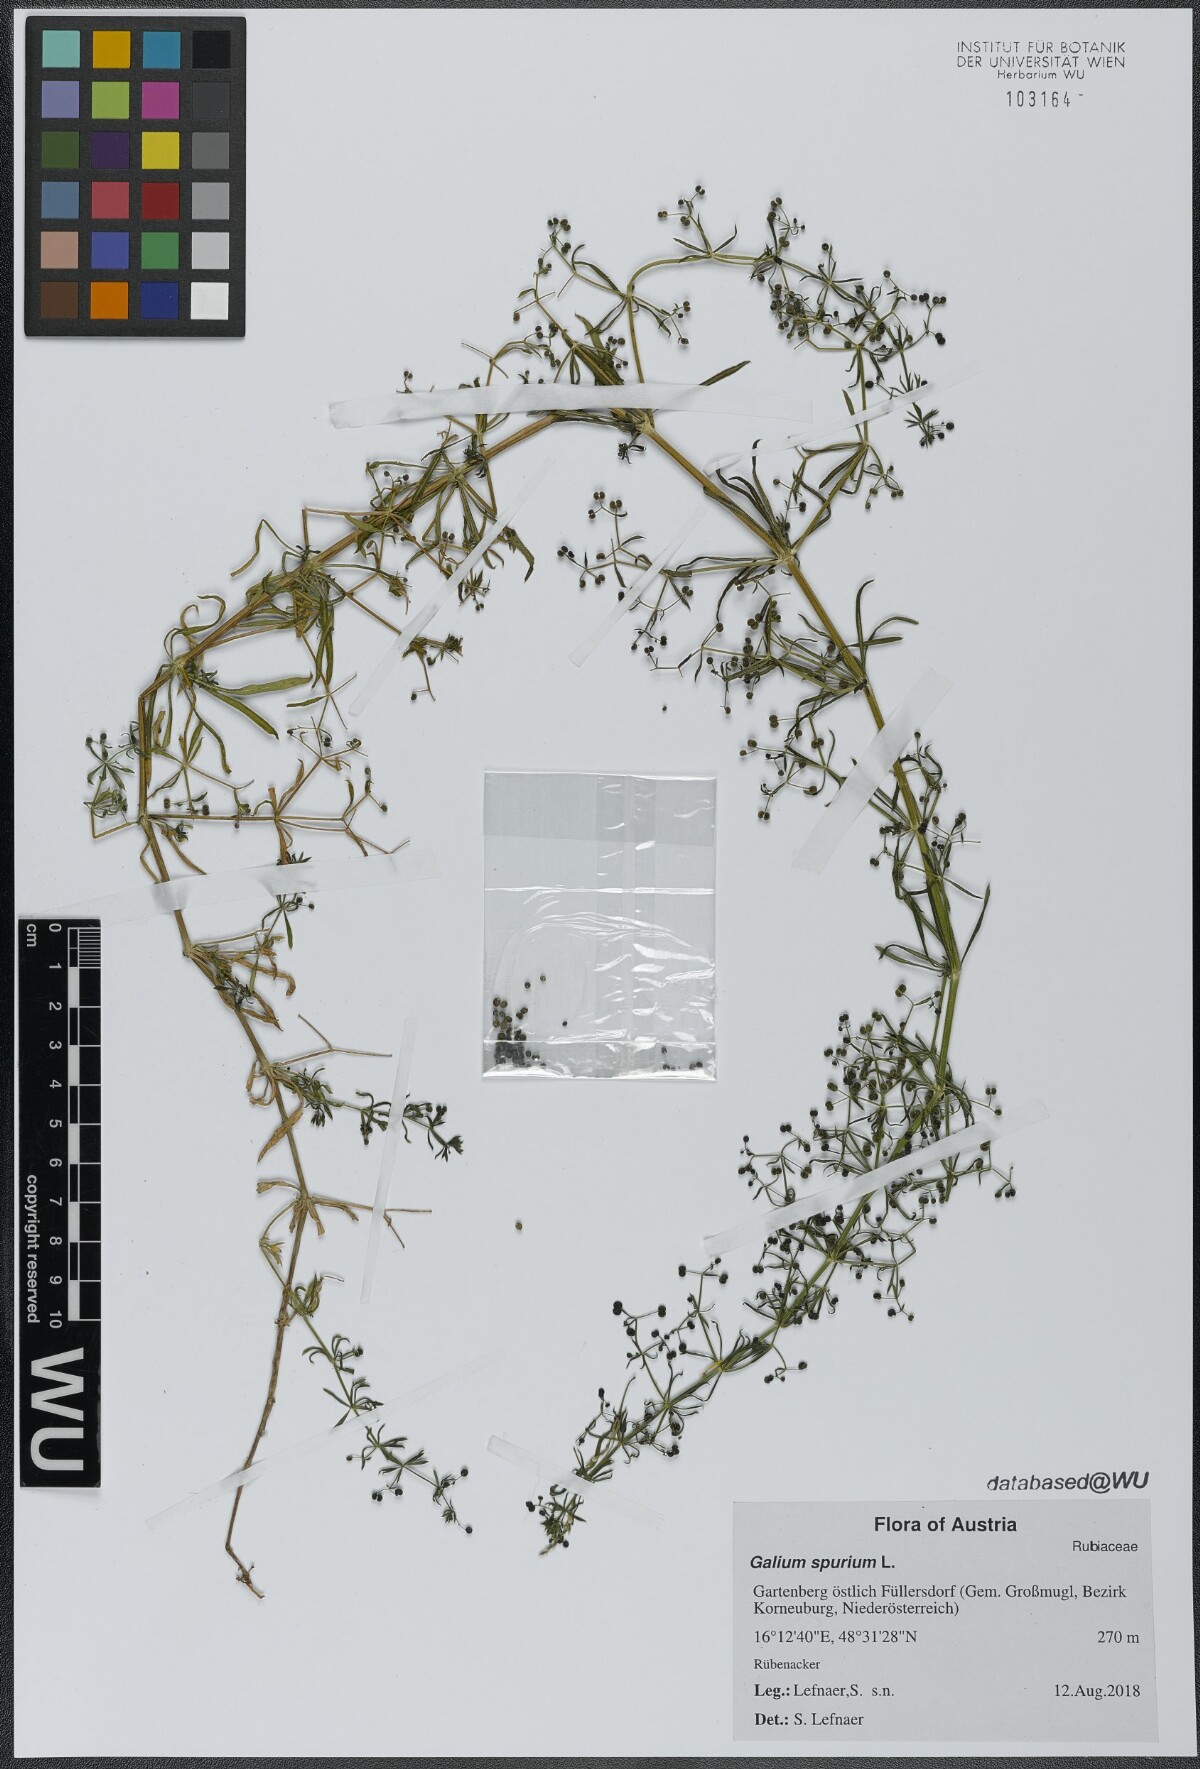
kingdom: Plantae
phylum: Tracheophyta
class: Magnoliopsida
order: Gentianales
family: Rubiaceae
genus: Galium
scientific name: Galium spurium
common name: False cleavers
